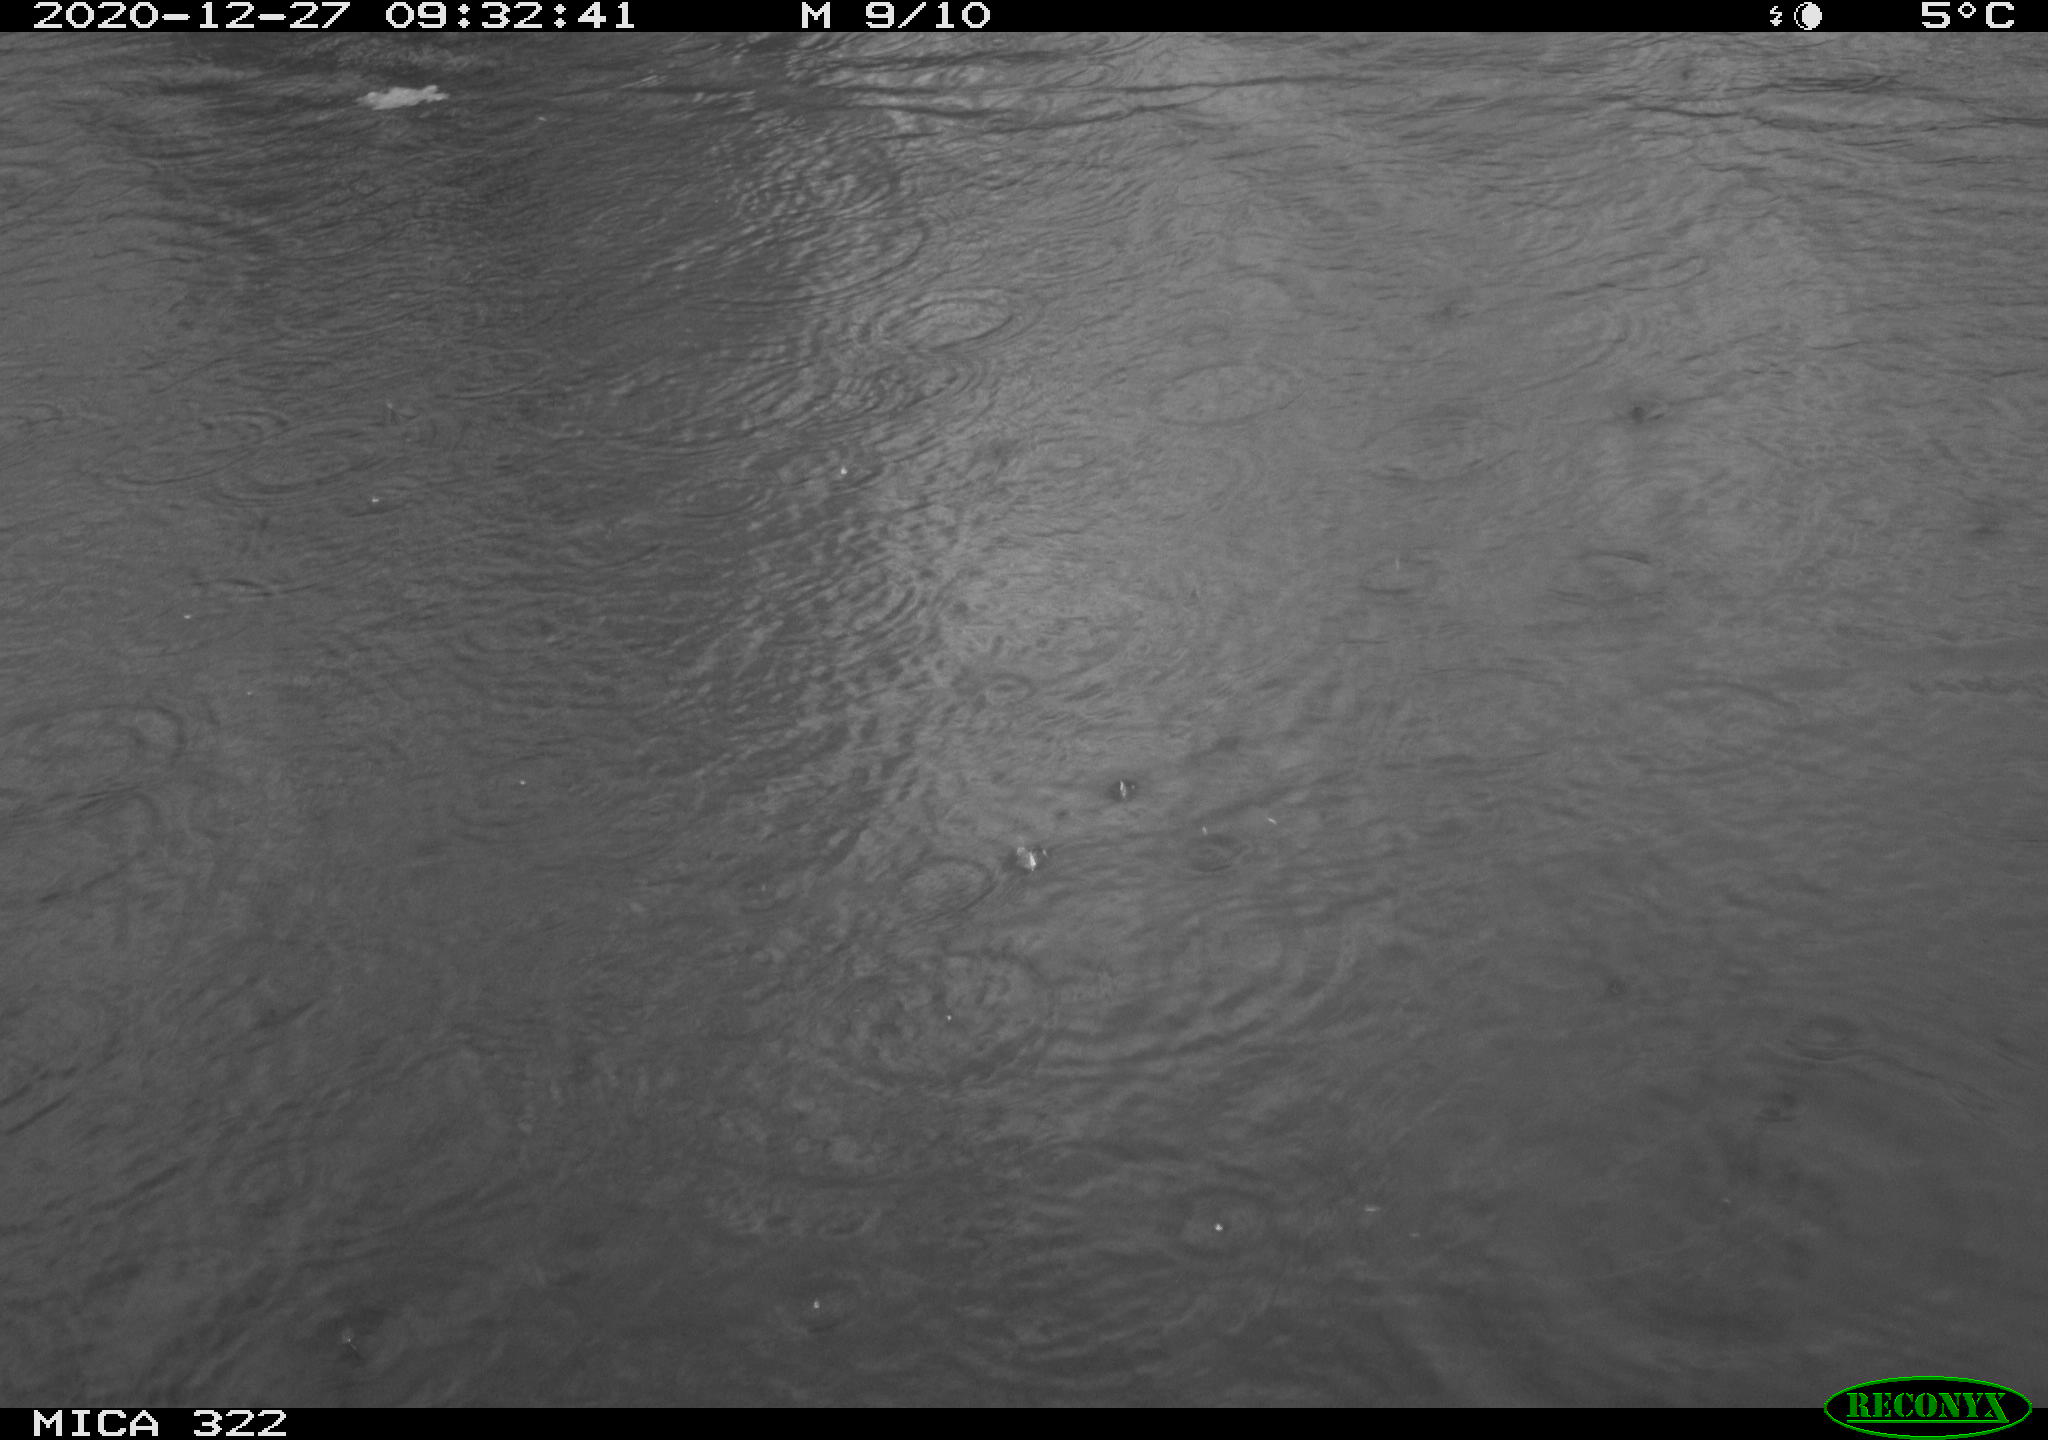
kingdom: Animalia
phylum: Chordata
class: Aves
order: Gruiformes
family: Rallidae
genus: Fulica
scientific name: Fulica atra
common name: Eurasian coot
